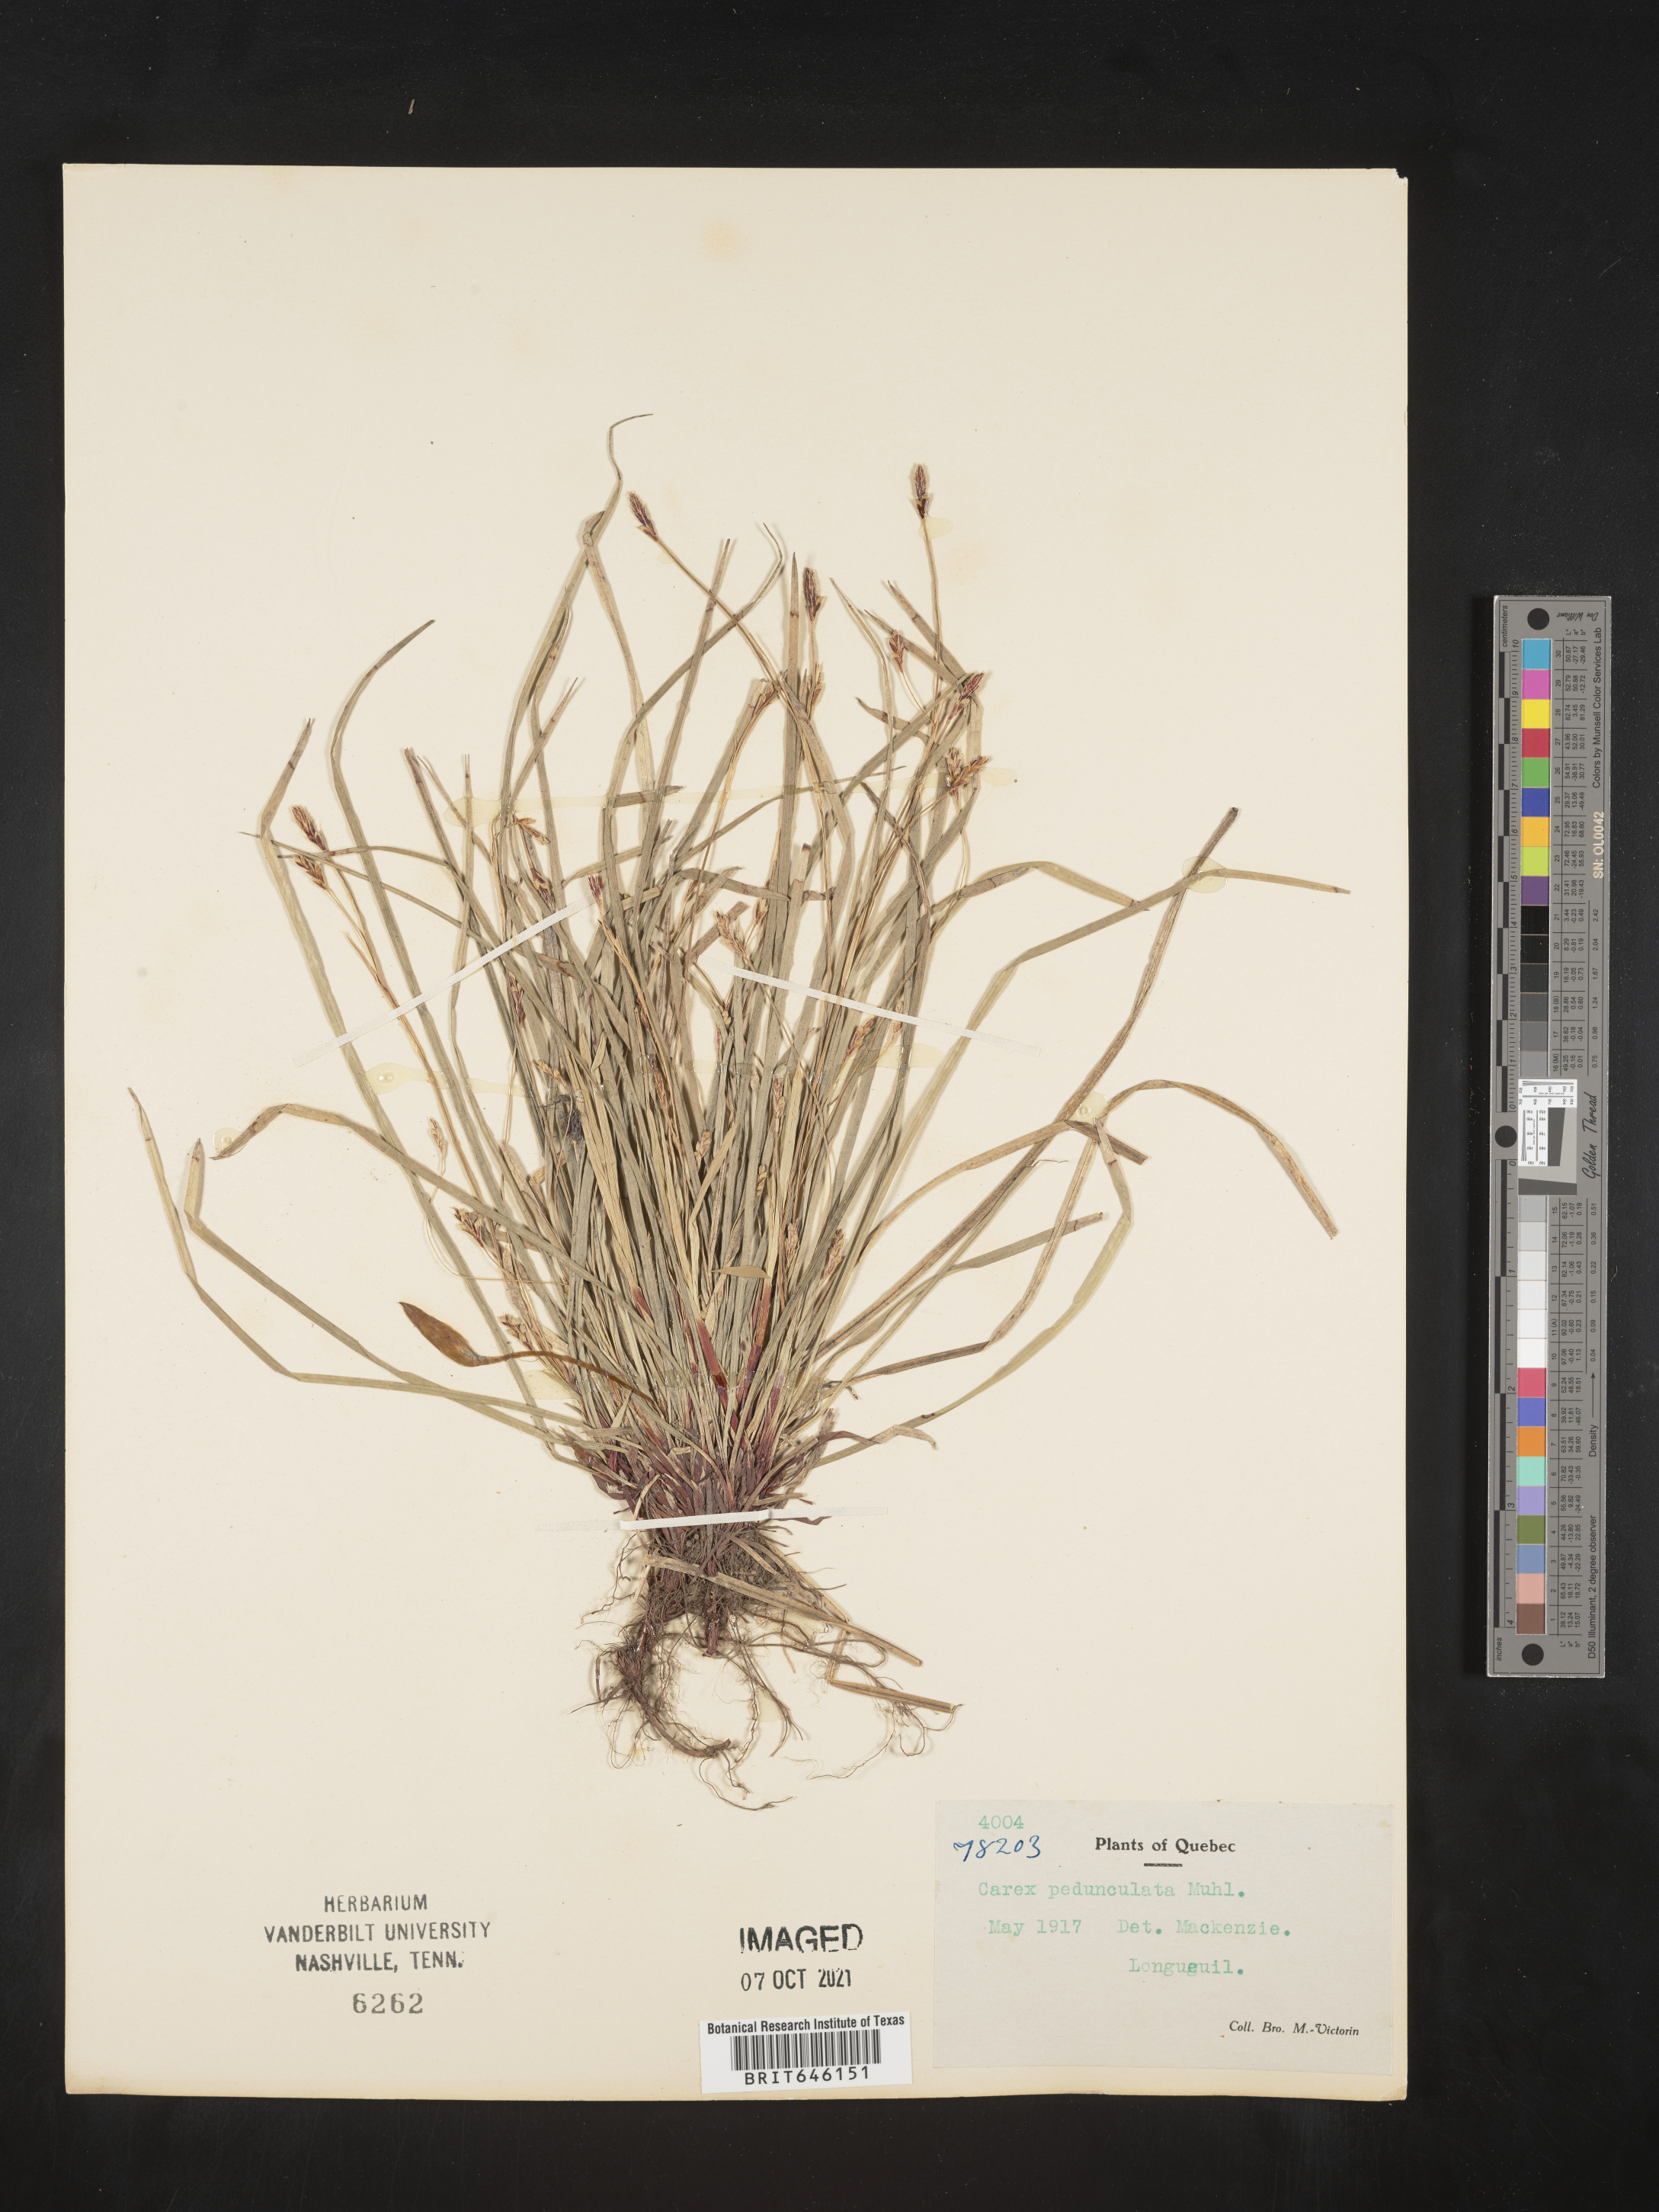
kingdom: Plantae
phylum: Tracheophyta
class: Liliopsida
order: Poales
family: Cyperaceae
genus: Carex
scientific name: Carex pedunculata
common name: Pedunculate sedge
